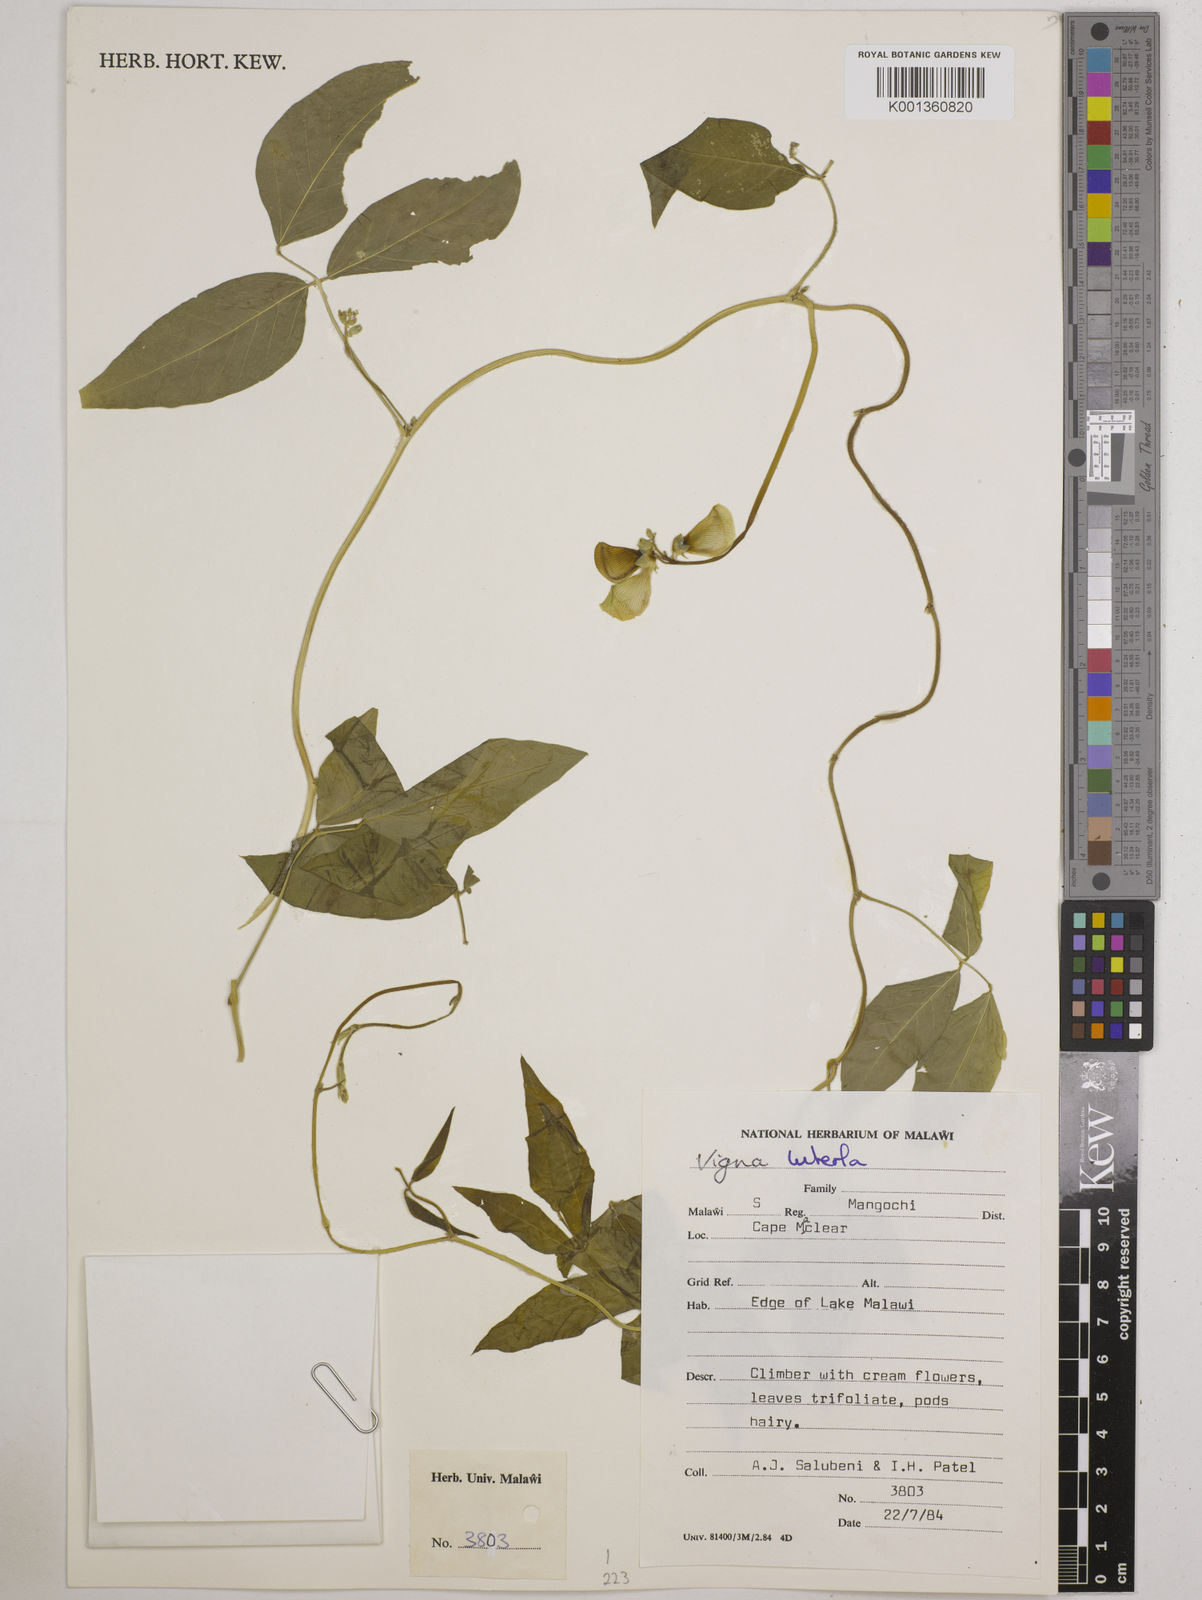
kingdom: Plantae
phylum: Tracheophyta
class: Magnoliopsida
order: Fabales
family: Fabaceae
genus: Vigna
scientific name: Vigna luteola
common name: Hairypod cowpea
